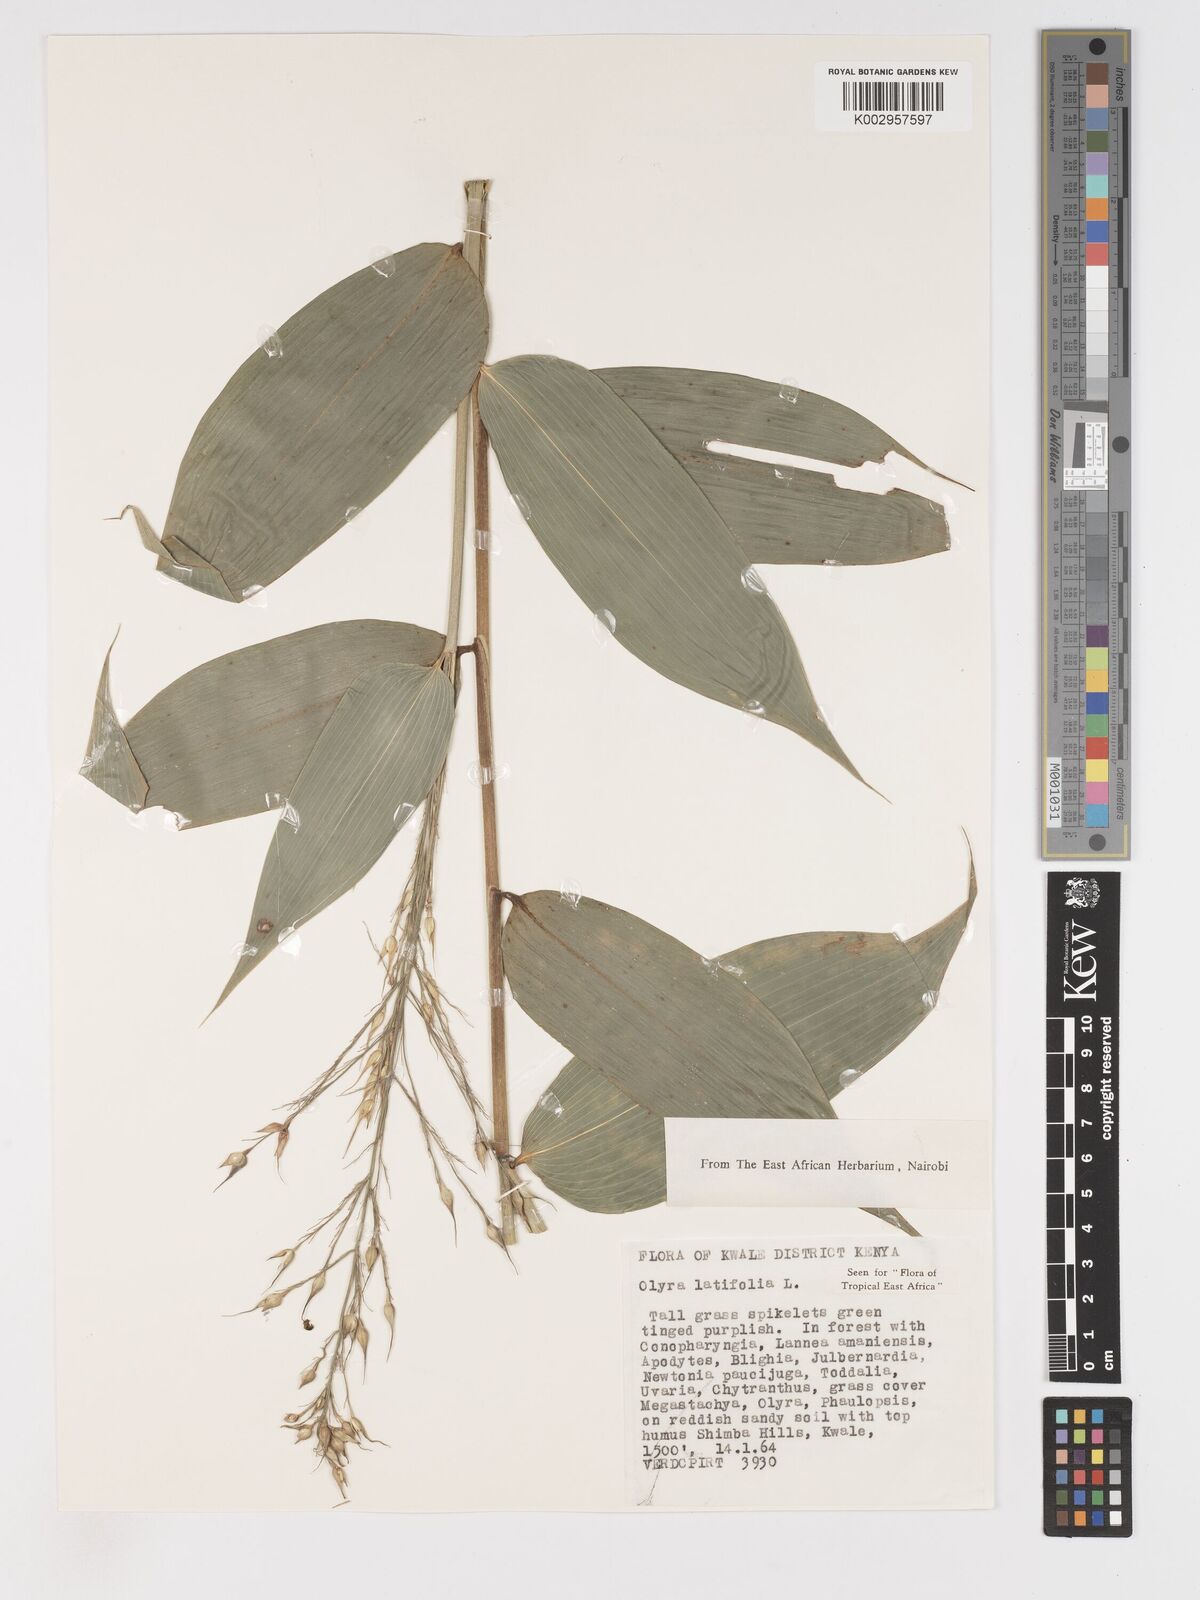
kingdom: Plantae
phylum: Tracheophyta
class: Liliopsida
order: Poales
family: Poaceae
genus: Olyra
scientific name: Olyra latifolia
